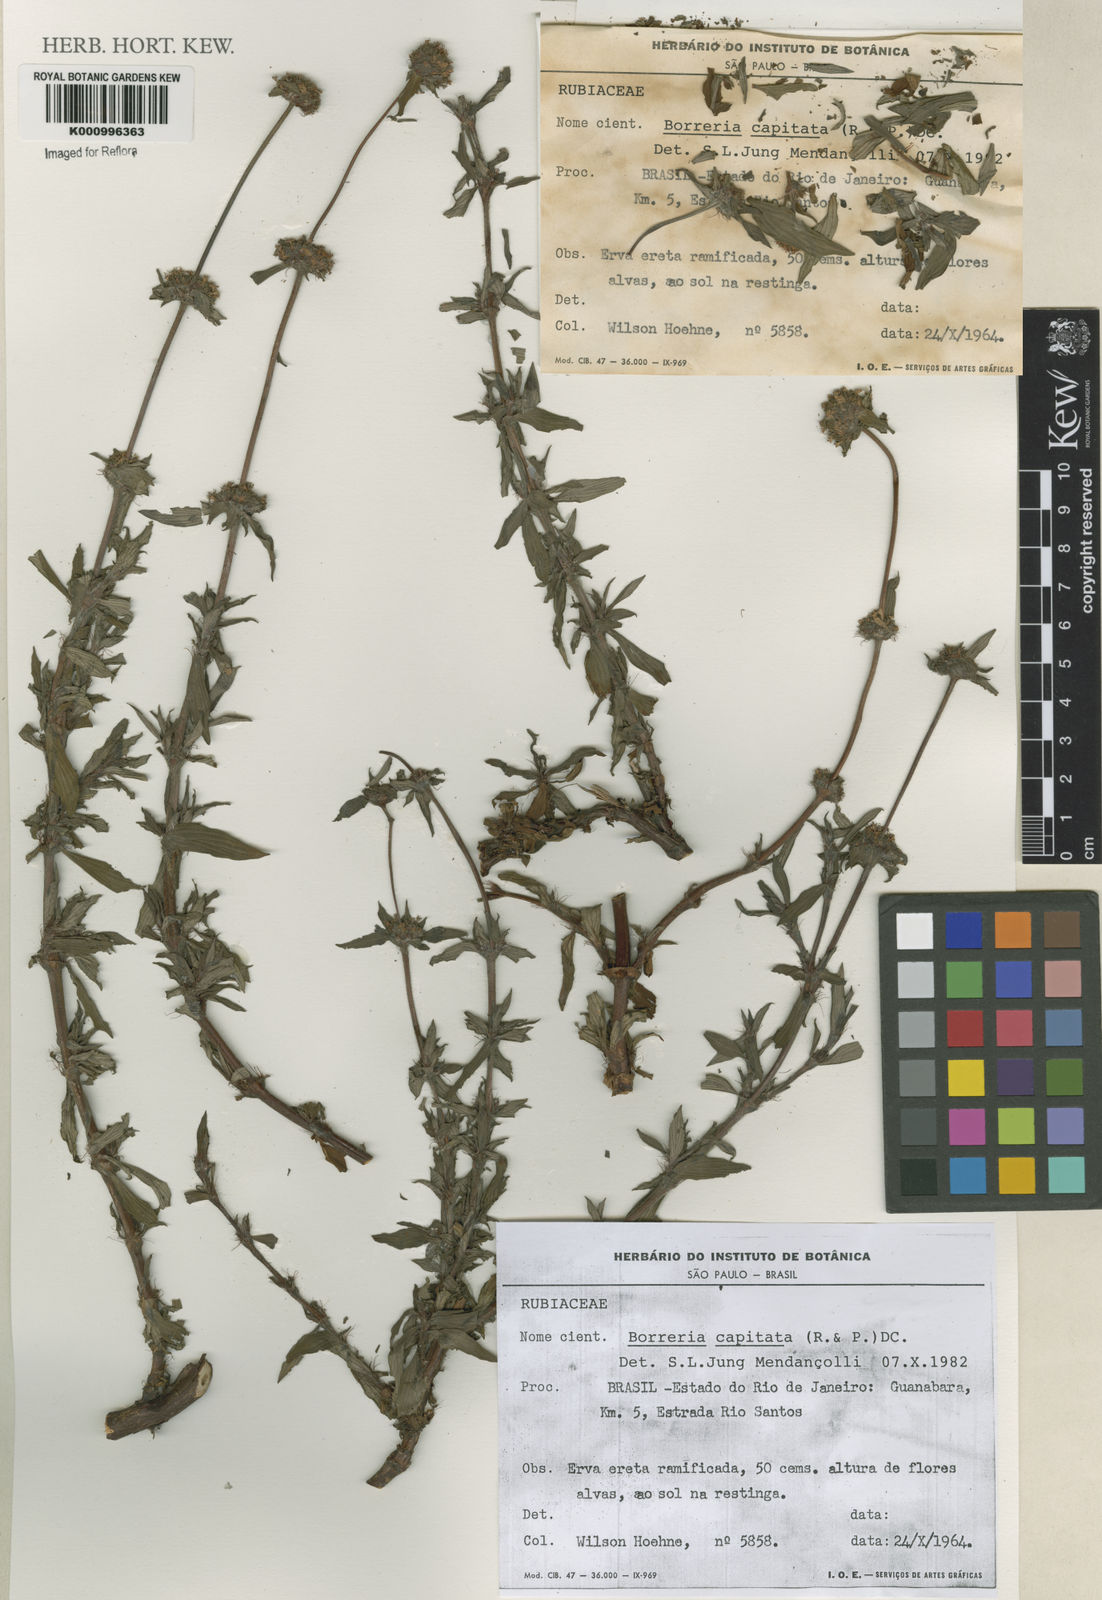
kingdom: Plantae
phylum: Tracheophyta
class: Magnoliopsida
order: Gentianales
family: Rubiaceae
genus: Spermacoce
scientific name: Spermacoce capitata
